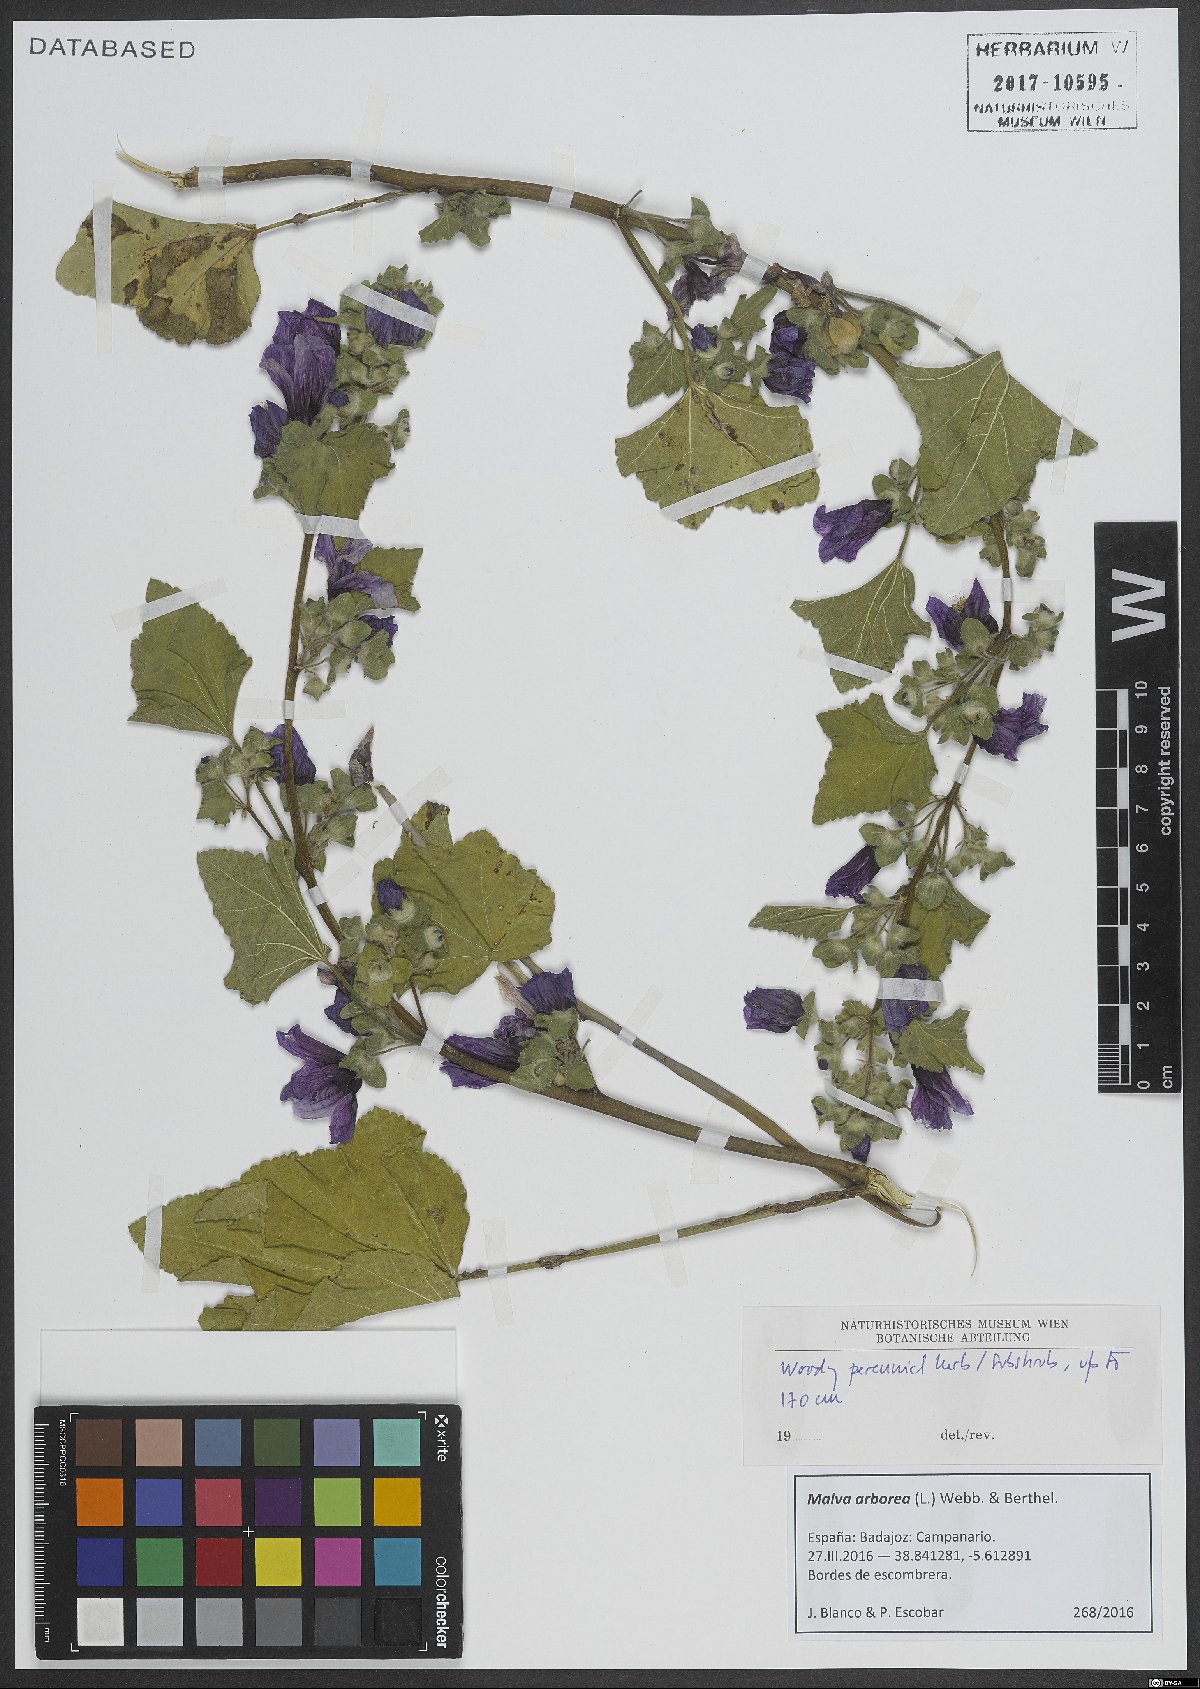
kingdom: Plantae
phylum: Tracheophyta
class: Magnoliopsida
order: Malvales
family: Malvaceae
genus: Malva
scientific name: Malva arborea
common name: Tree mallow
